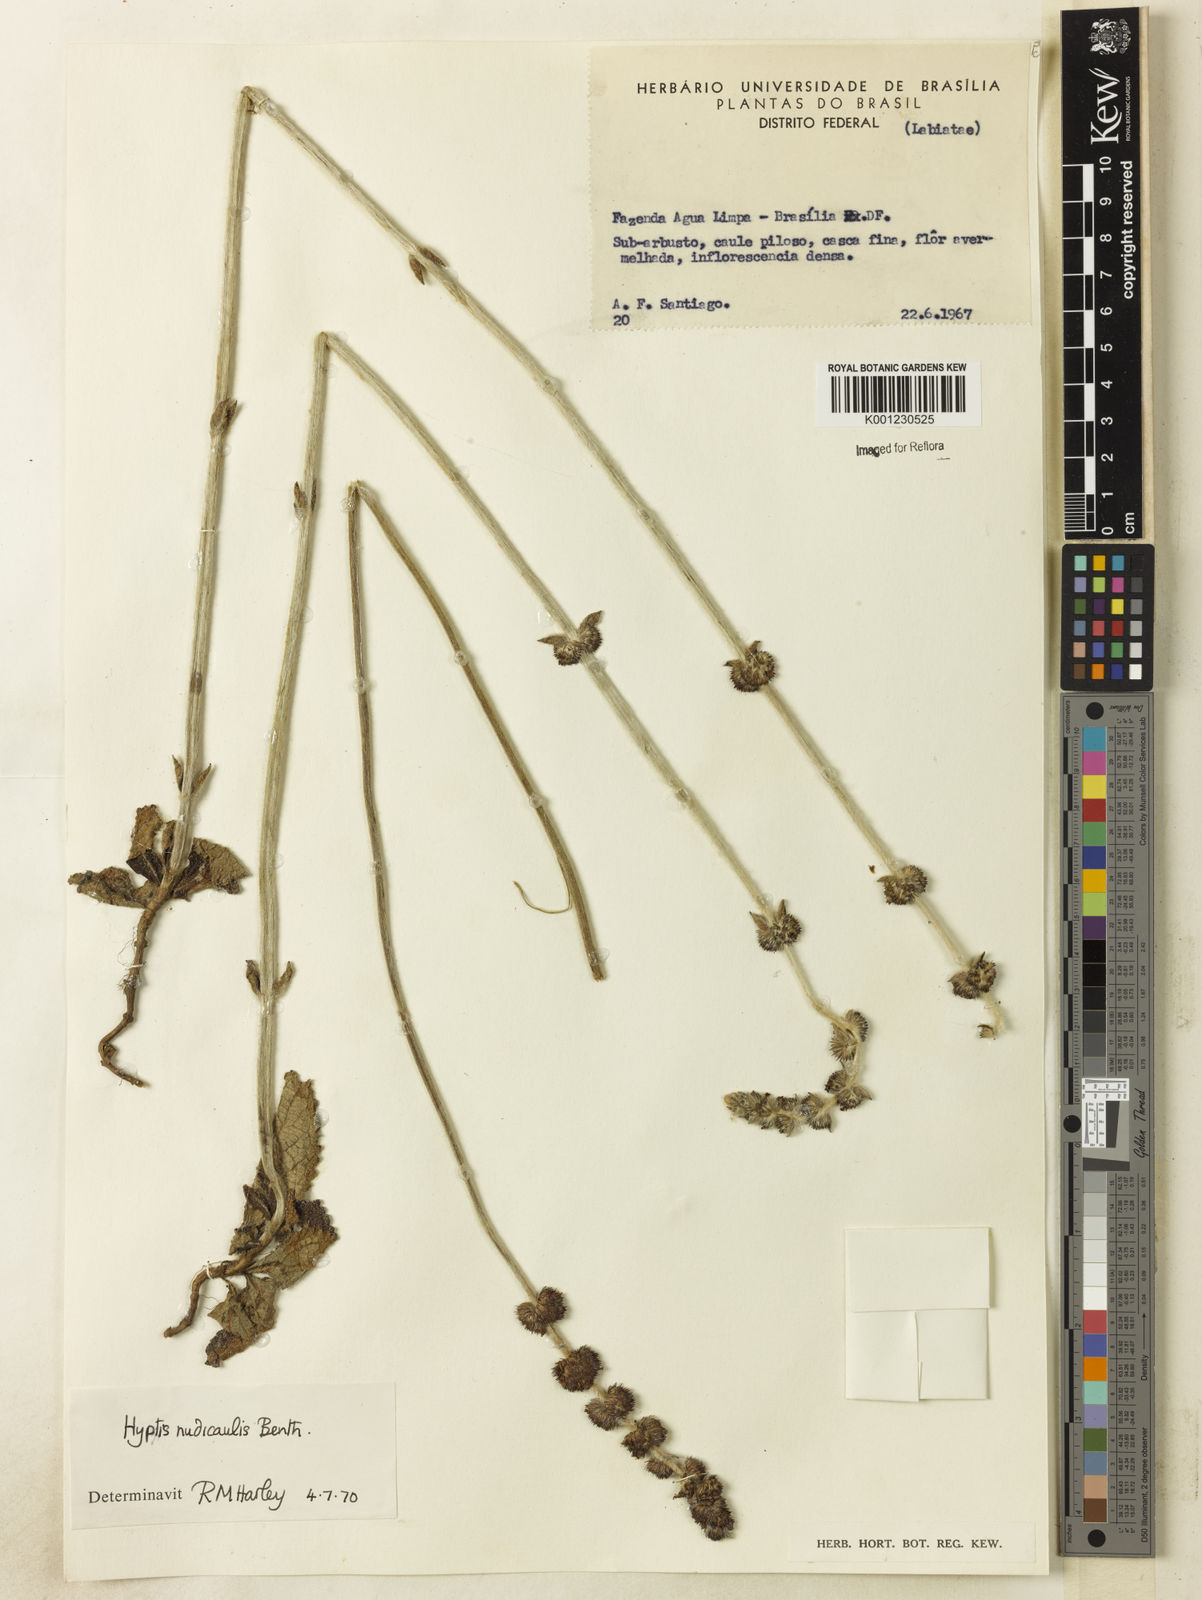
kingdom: Plantae
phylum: Tracheophyta
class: Magnoliopsida
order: Lamiales
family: Lamiaceae
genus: Hyptis
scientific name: Hyptis nudicaulis
